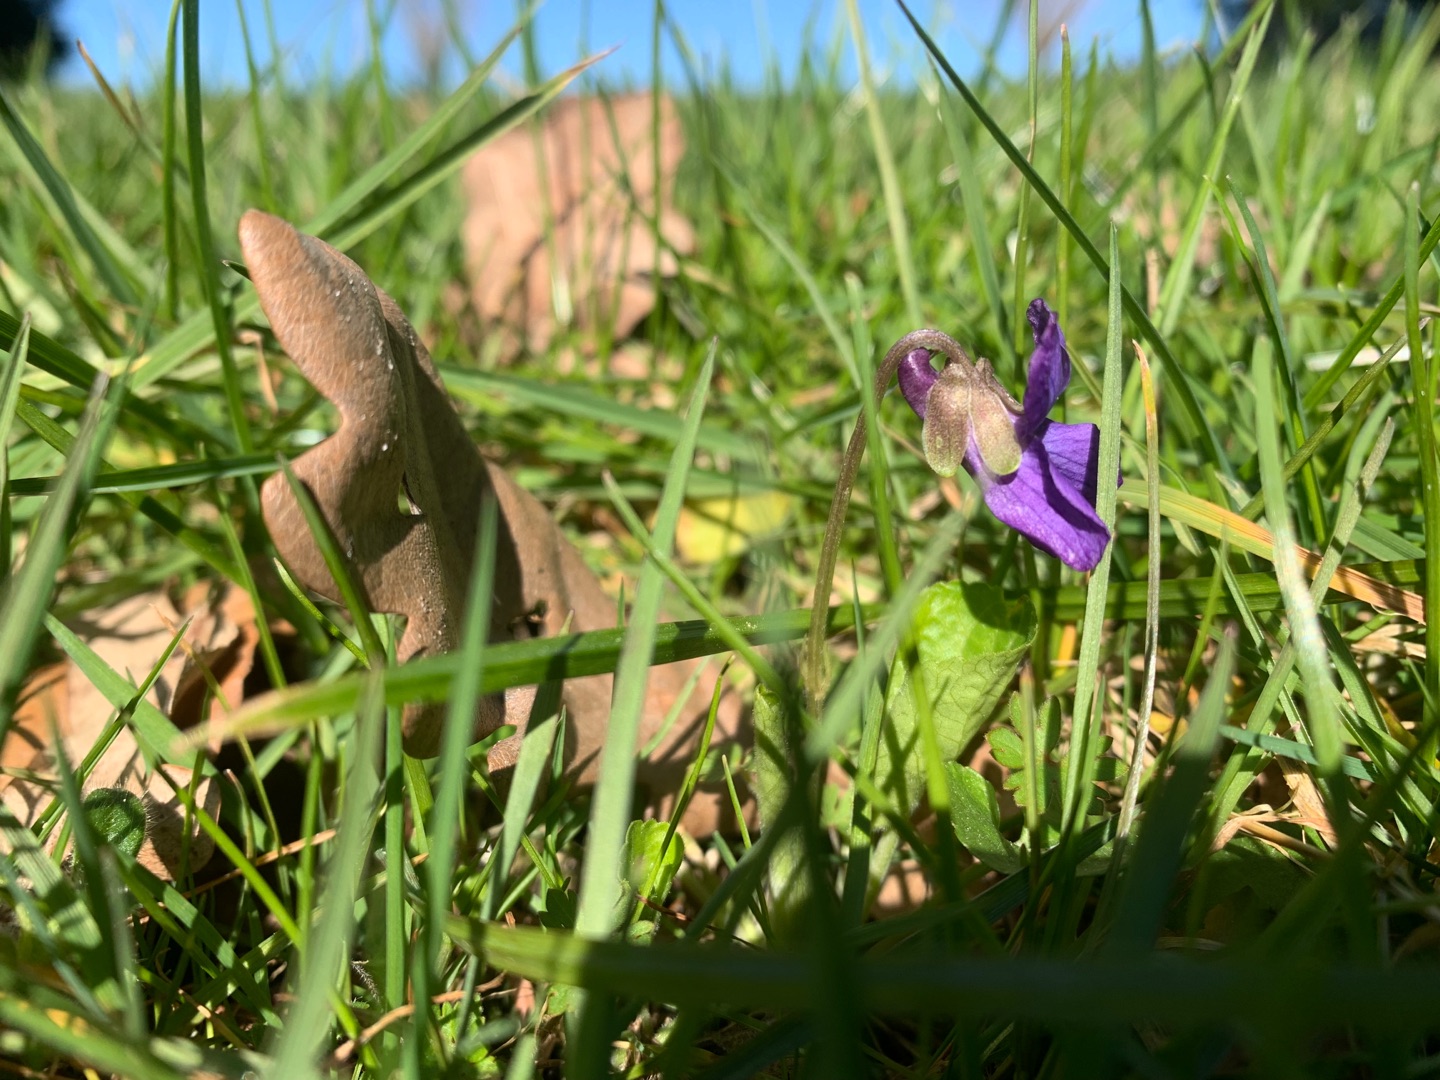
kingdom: Plantae
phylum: Tracheophyta
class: Magnoliopsida
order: Malpighiales
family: Violaceae
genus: Viola
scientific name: Viola odorata
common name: Marts-viol
